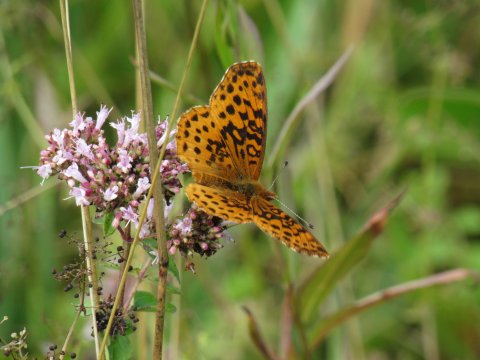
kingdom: Animalia
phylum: Arthropoda
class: Insecta
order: Lepidoptera
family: Nymphalidae
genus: Clossiana
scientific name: Clossiana toddi
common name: Meadow Fritillary
